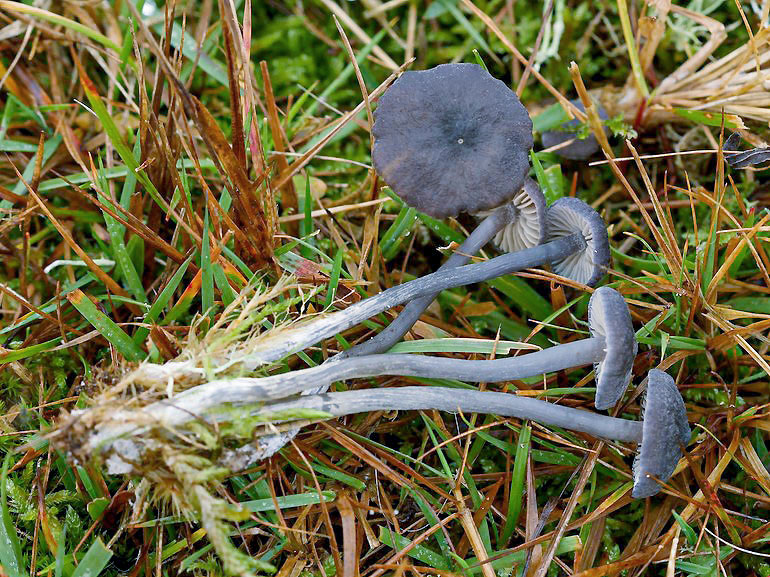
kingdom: Fungi
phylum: Basidiomycota
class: Agaricomycetes
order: Agaricales
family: Entolomataceae
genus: Entoloma
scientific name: Entoloma caeruleopolitum
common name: blåpoleret rødblad
